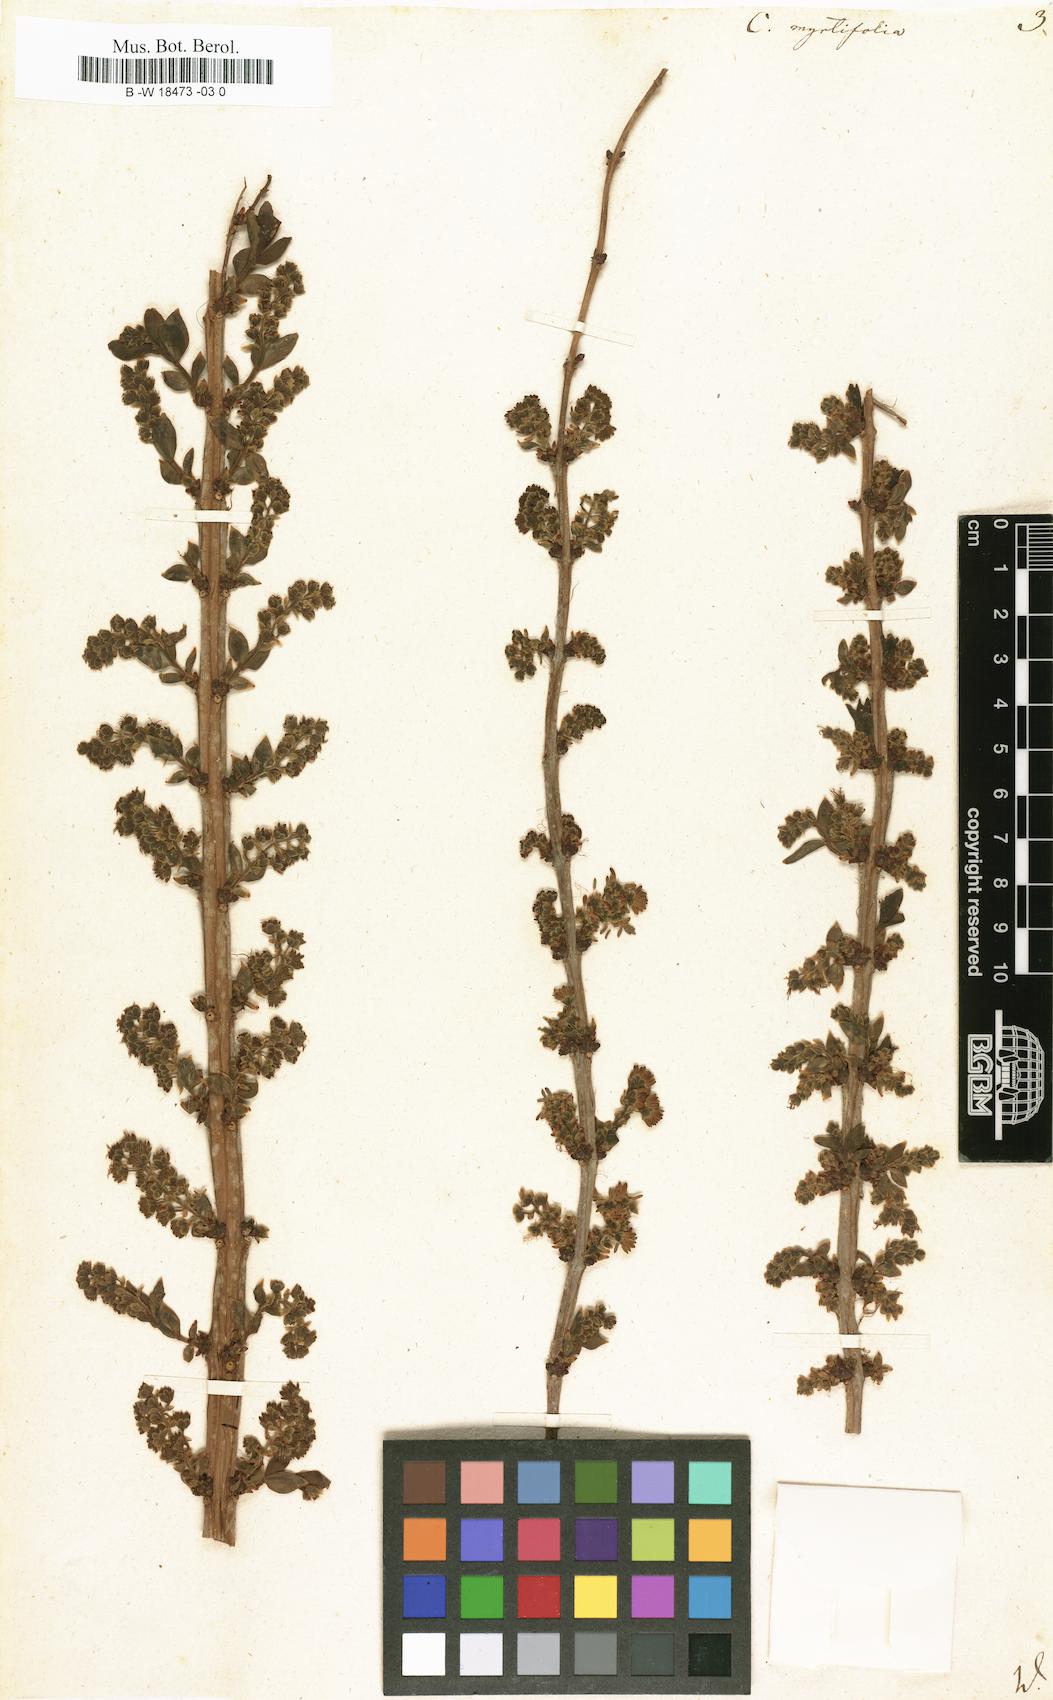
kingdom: Plantae
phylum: Tracheophyta
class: Magnoliopsida
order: Cucurbitales
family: Coriariaceae
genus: Coriaria
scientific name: Coriaria myrtifolia
